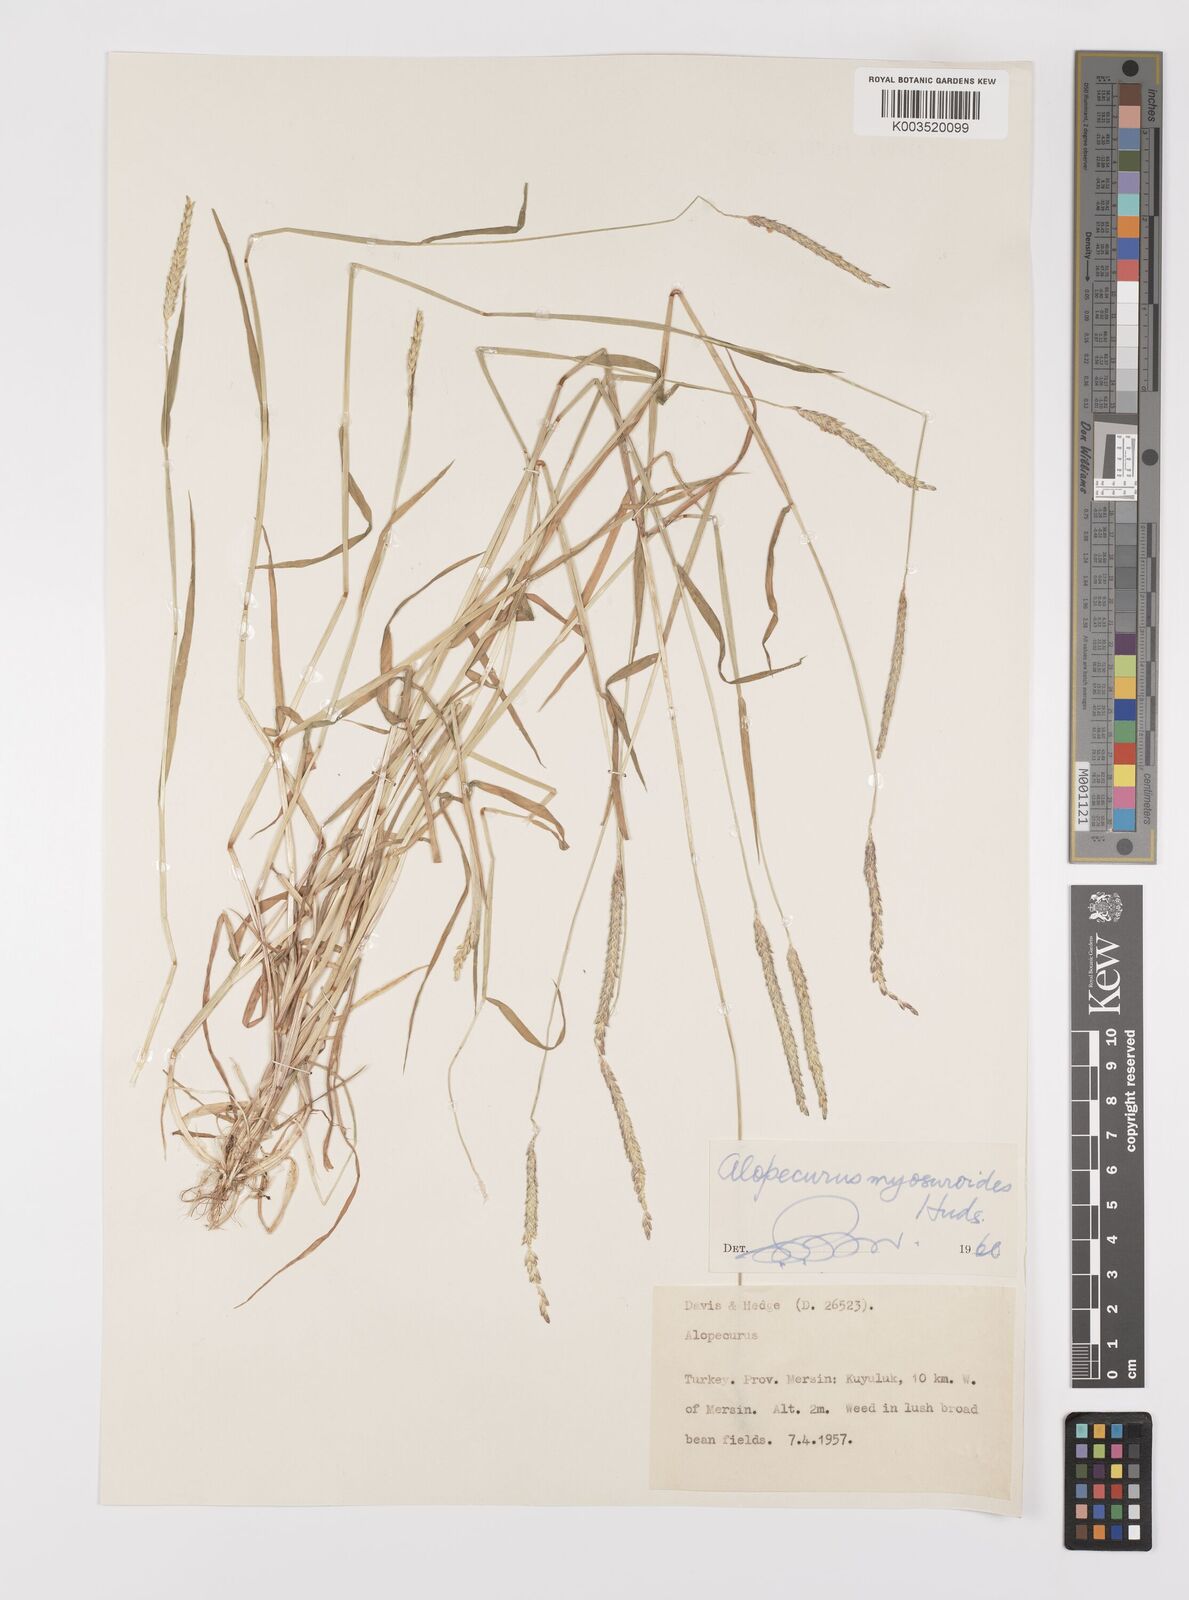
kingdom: Plantae
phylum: Tracheophyta
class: Liliopsida
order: Poales
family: Poaceae
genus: Alopecurus
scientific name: Alopecurus myosuroides
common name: Black-grass
